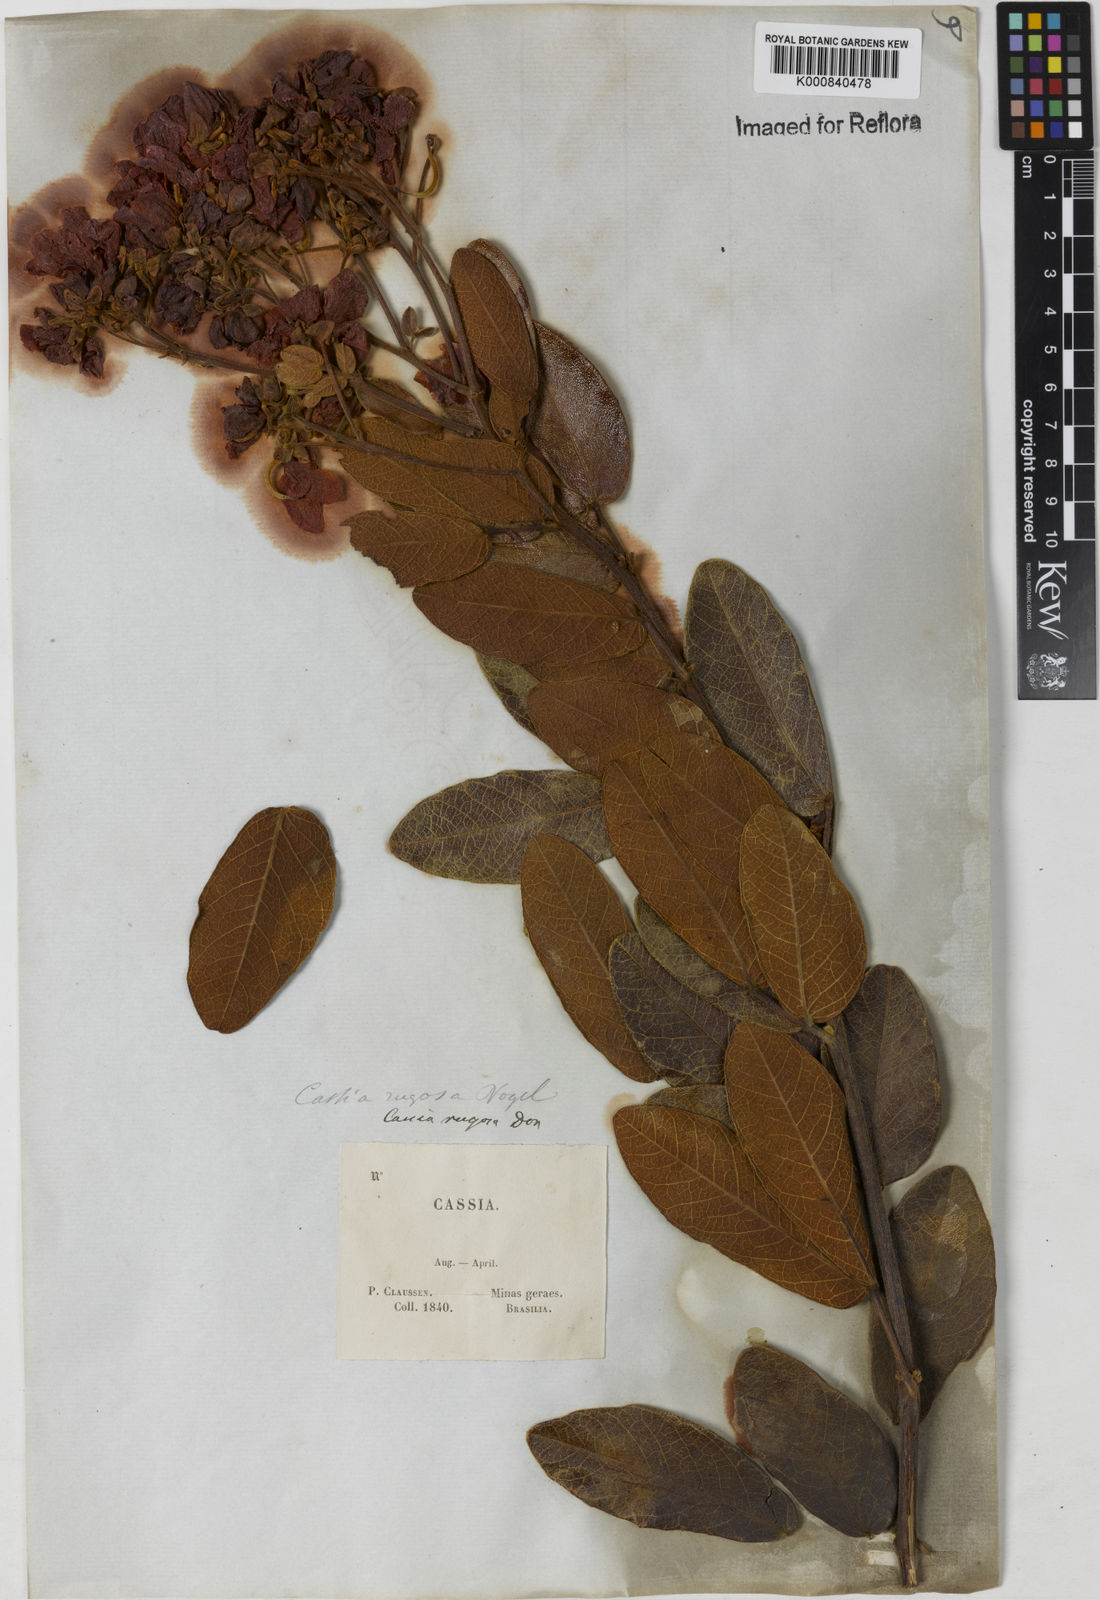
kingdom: Plantae
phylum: Tracheophyta
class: Magnoliopsida
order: Fabales
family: Fabaceae
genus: Senna
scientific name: Senna rugosa
